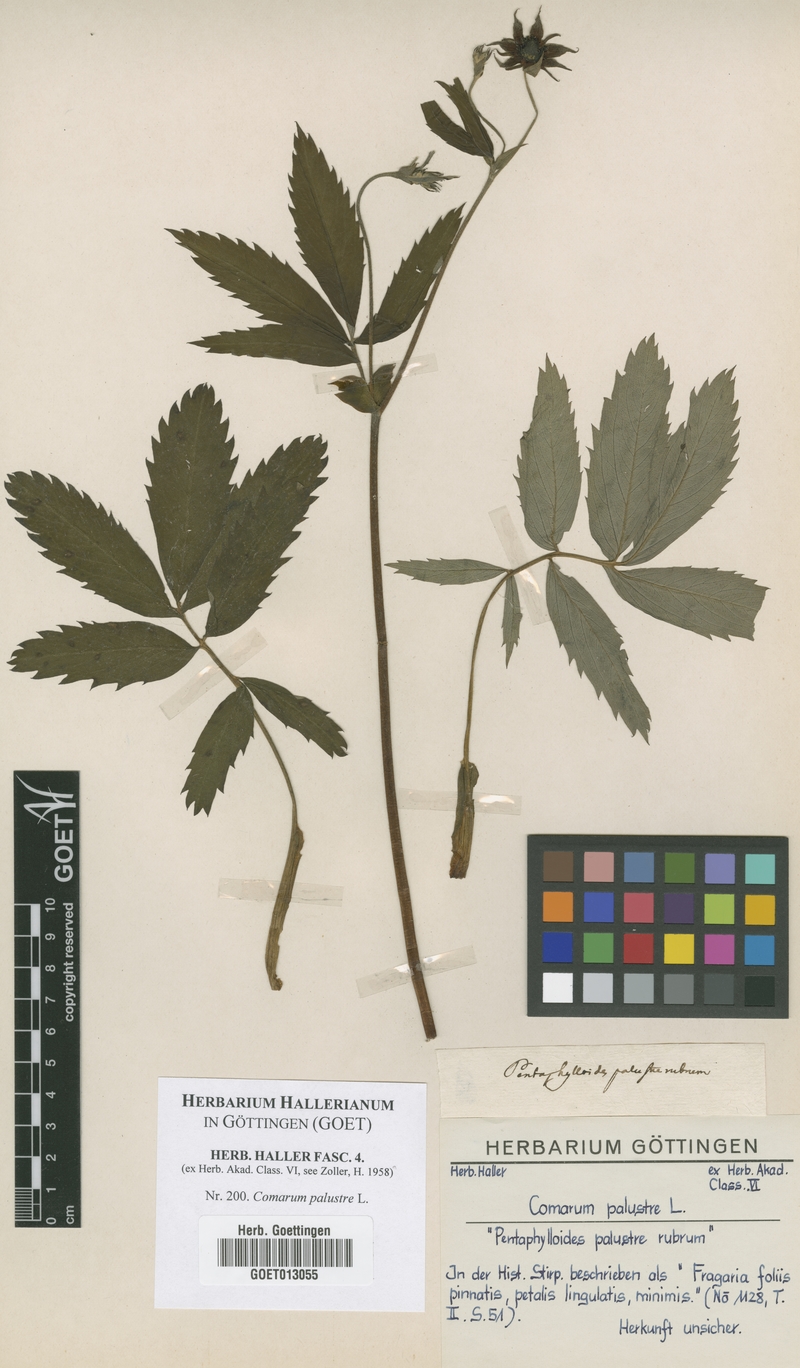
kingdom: Plantae
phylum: Tracheophyta
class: Magnoliopsida
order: Rosales
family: Rosaceae
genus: Comarum
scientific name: Comarum palustre
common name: Marsh cinquefoil
